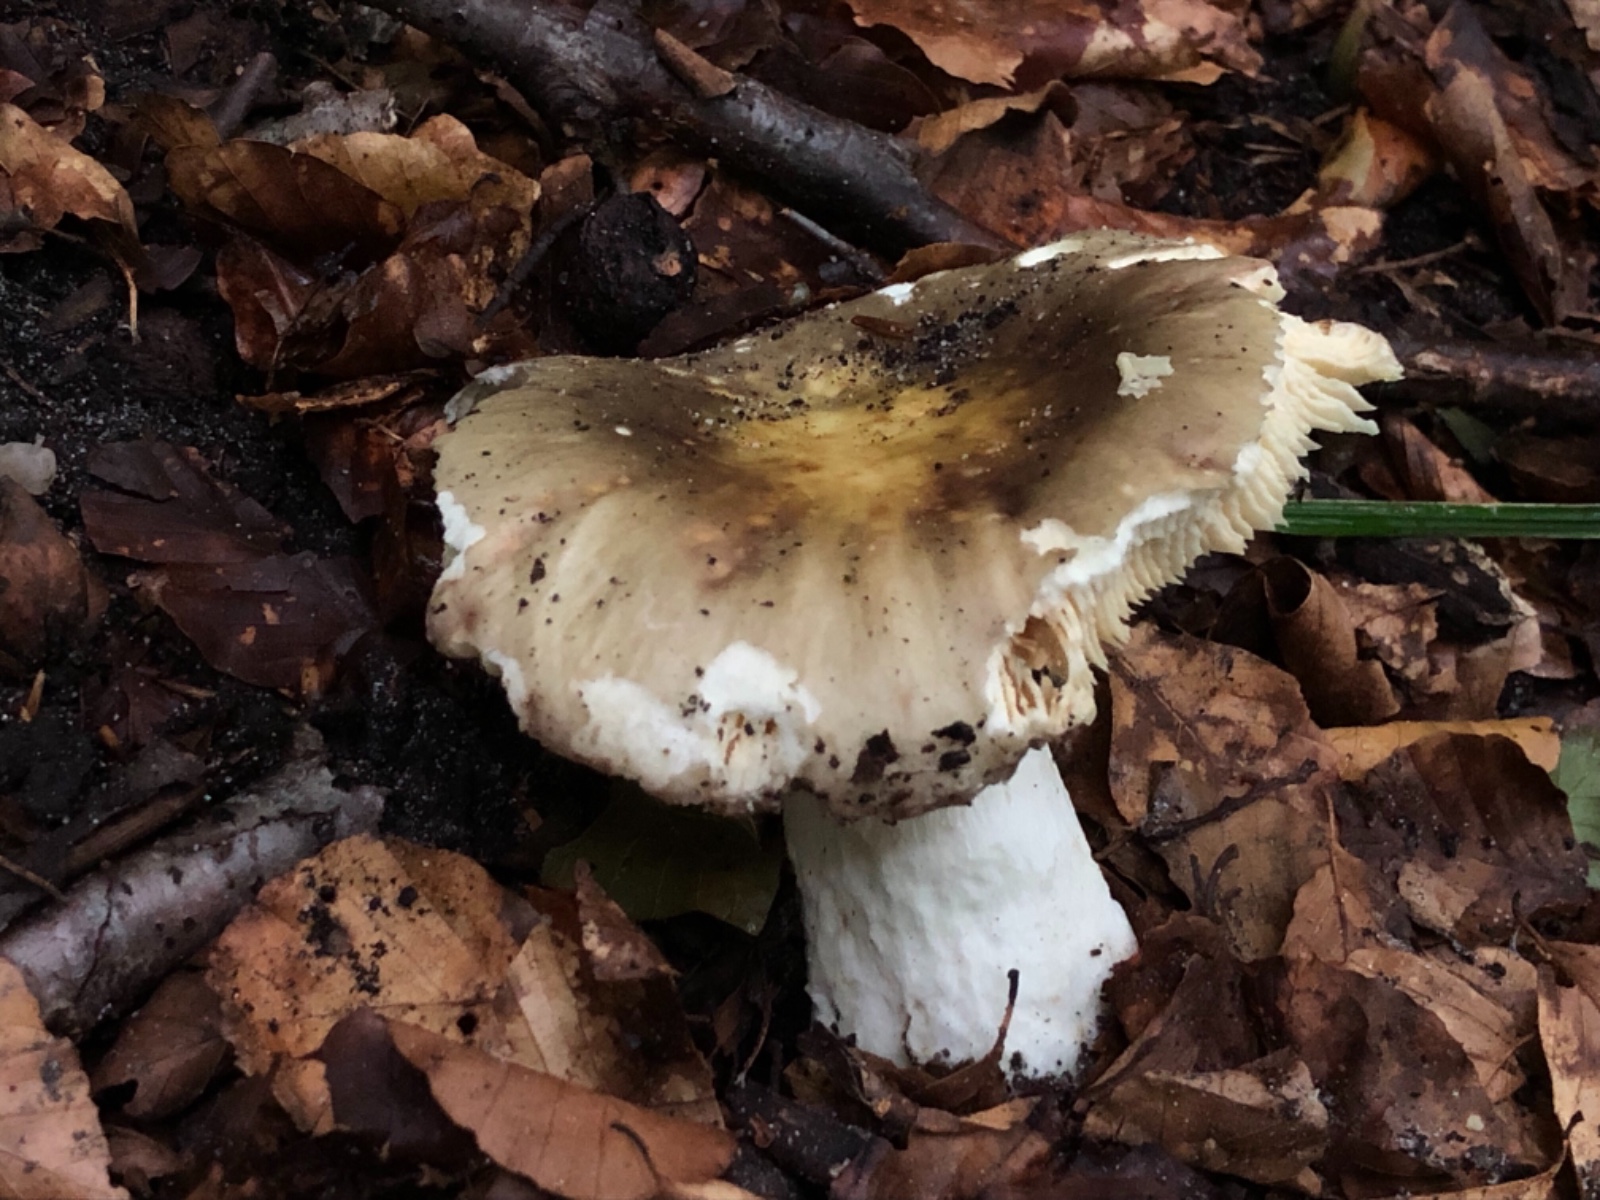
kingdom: Fungi
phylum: Basidiomycota
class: Agaricomycetes
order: Russulales
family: Russulaceae
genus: Russula
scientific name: Russula romellii
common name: romells skørhat
